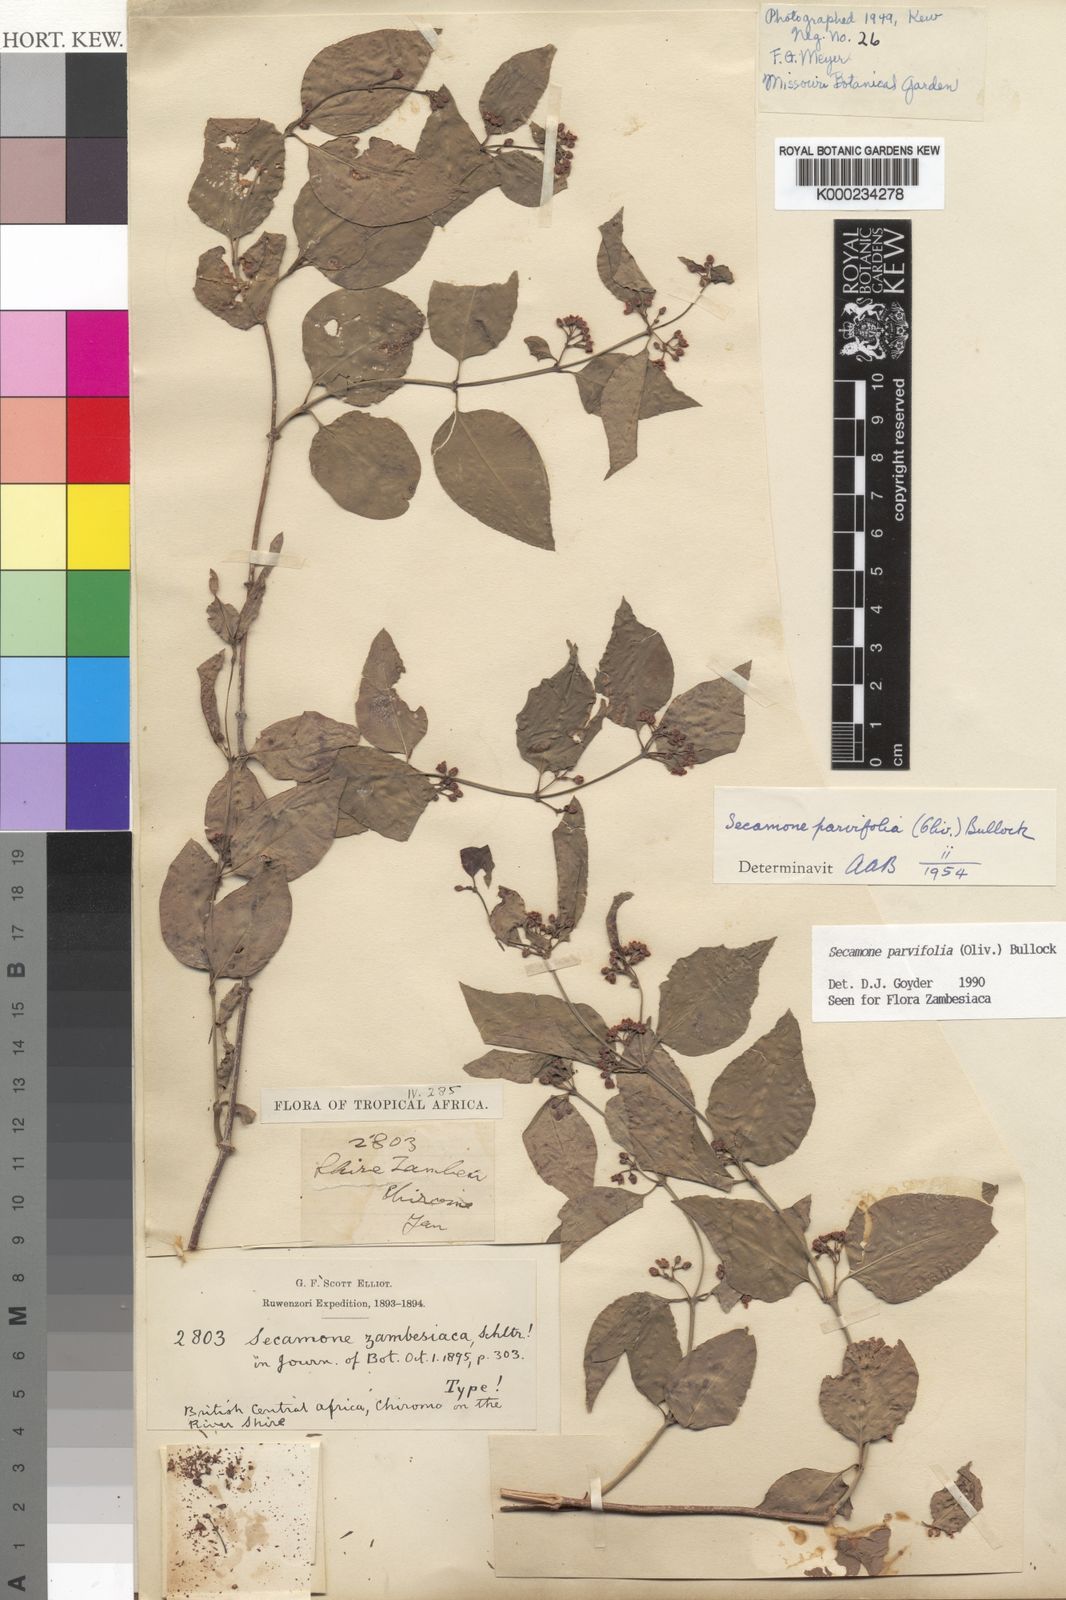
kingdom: Plantae
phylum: Tracheophyta
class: Magnoliopsida
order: Gentianales
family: Apocynaceae
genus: Secamone
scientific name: Secamone schweinfurthii
